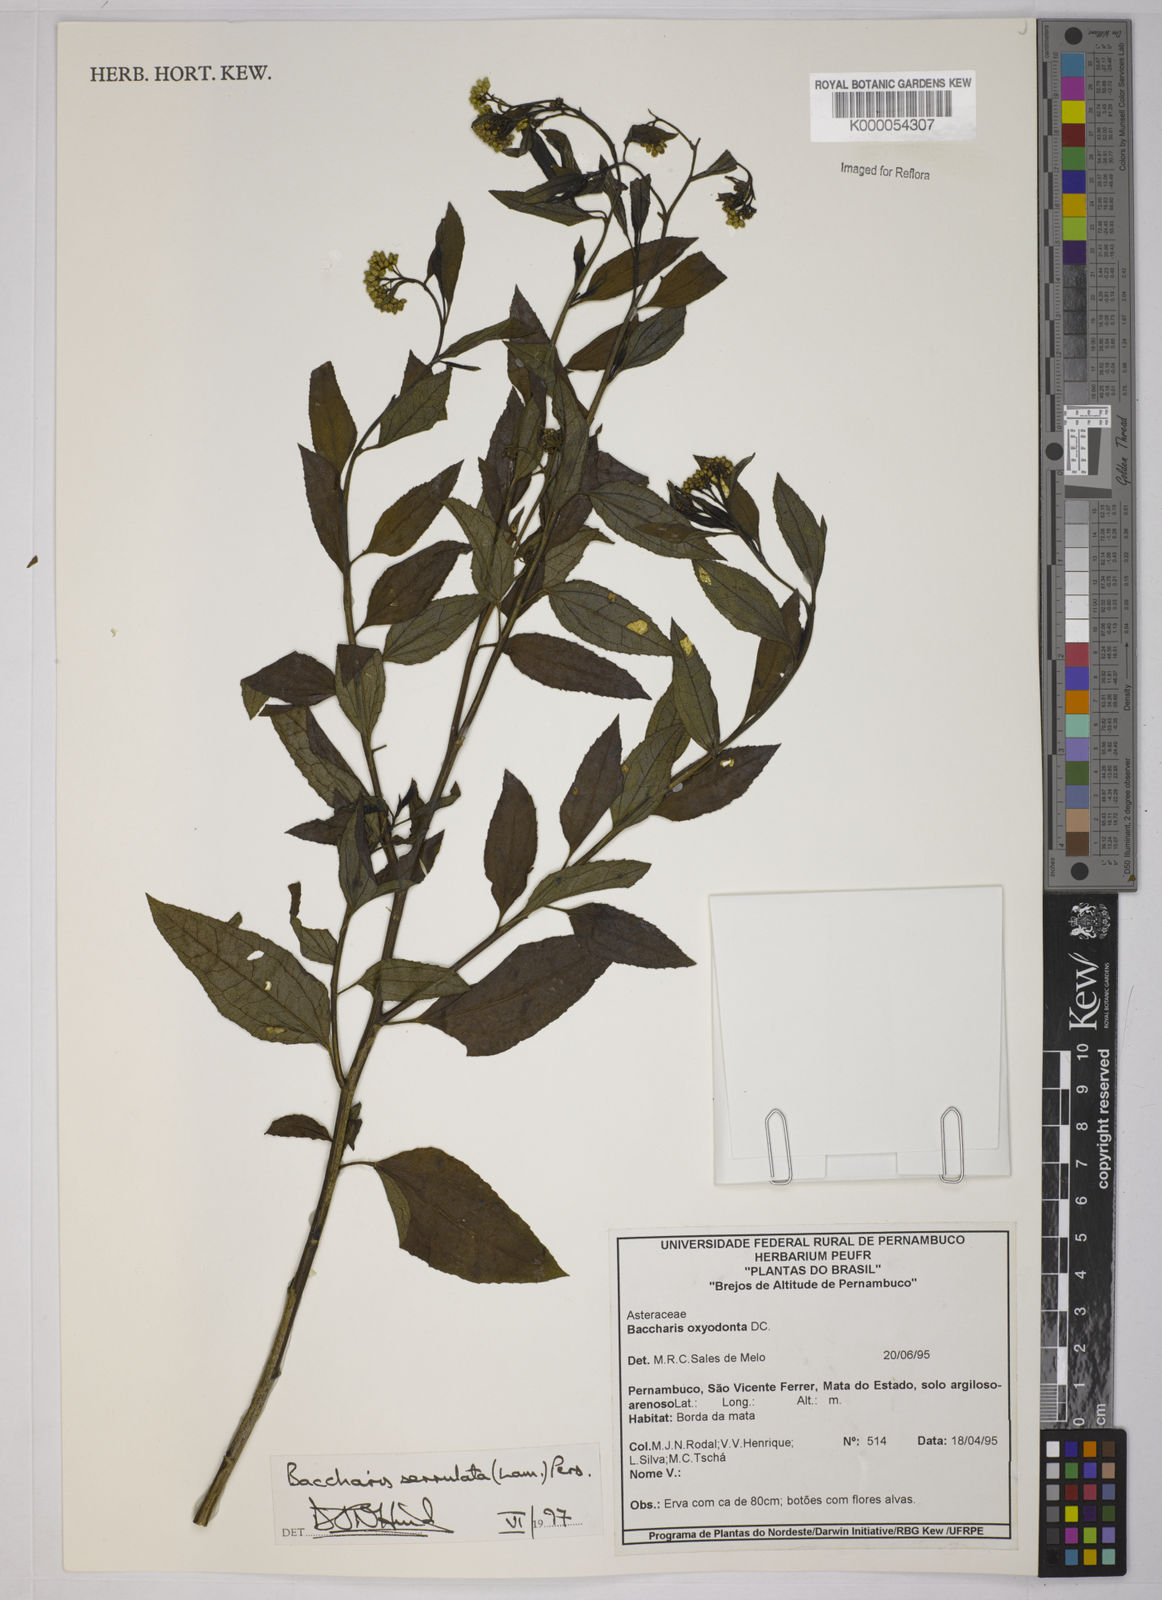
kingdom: Plantae
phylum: Tracheophyta
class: Magnoliopsida
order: Asterales
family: Asteraceae
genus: Baccharis
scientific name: Baccharis serrulata
